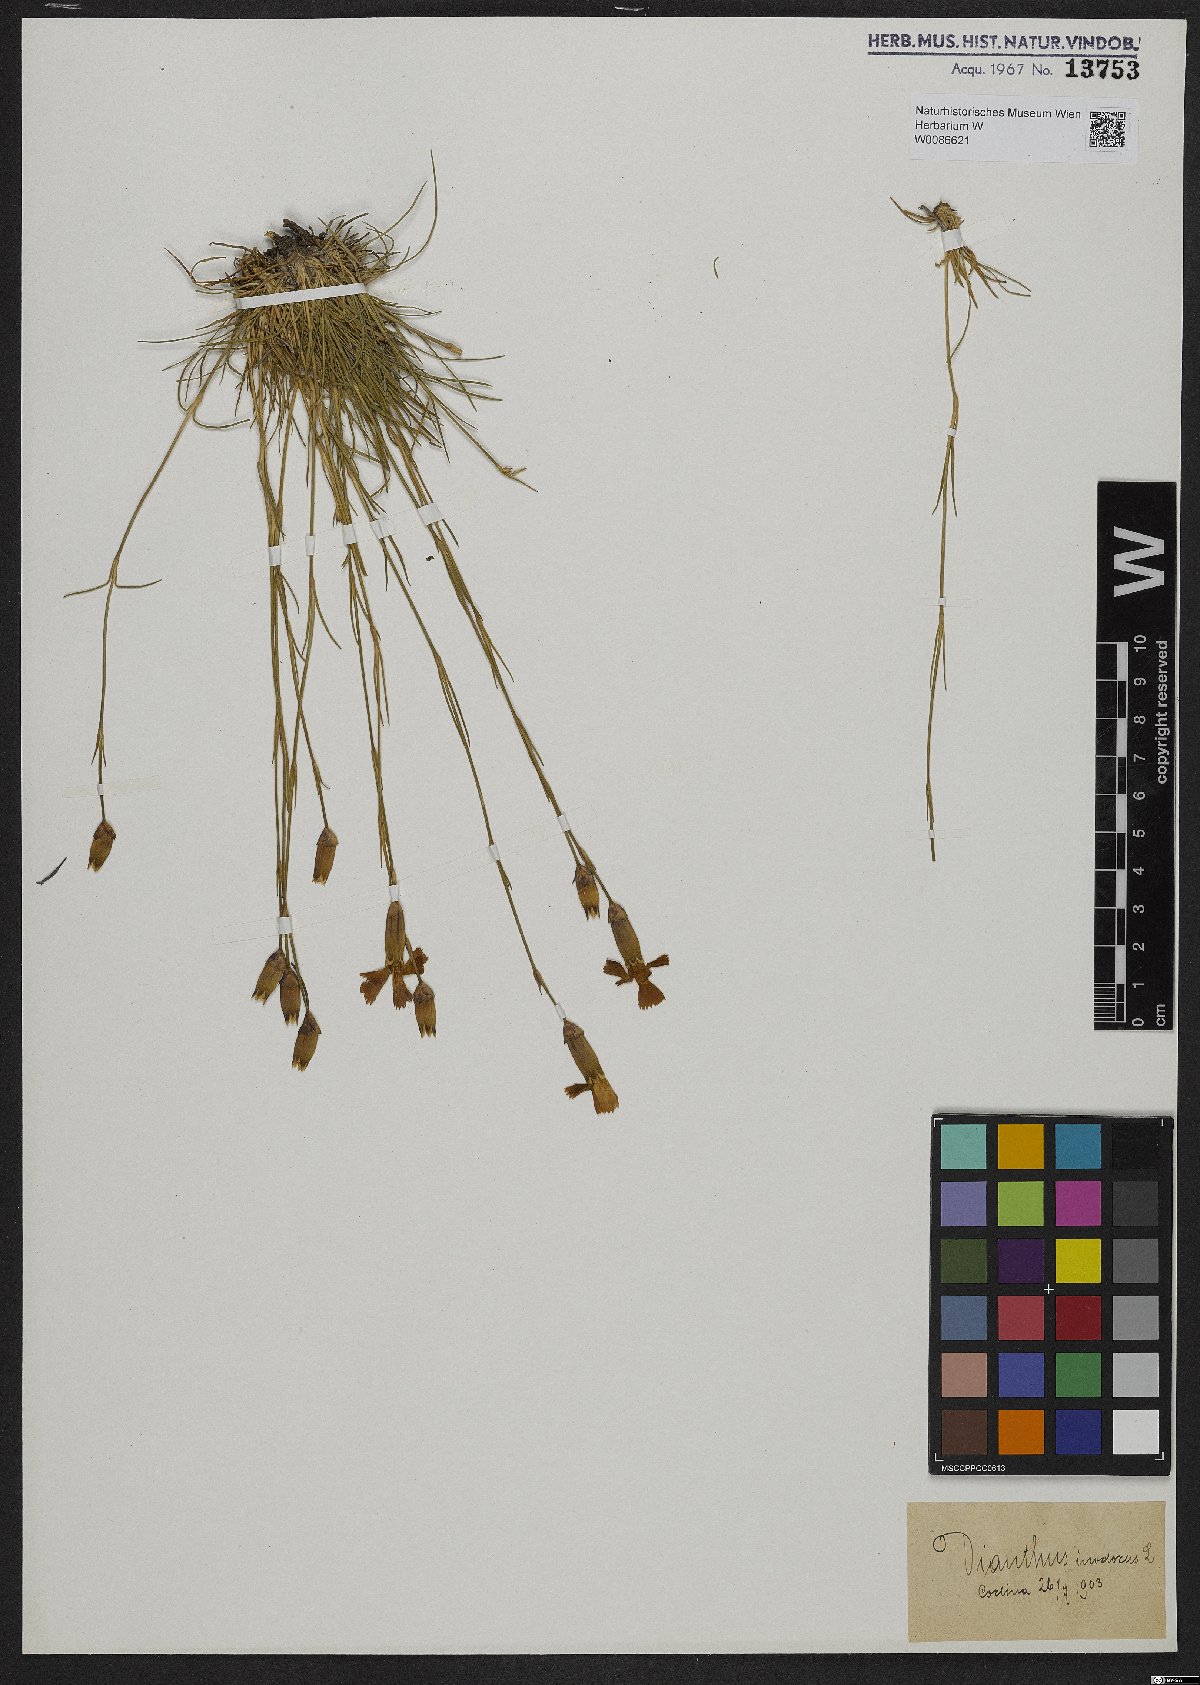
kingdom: Plantae
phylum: Tracheophyta
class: Magnoliopsida
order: Caryophyllales
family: Caryophyllaceae
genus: Dianthus
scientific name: Dianthus sylvestris
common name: Wood pink
